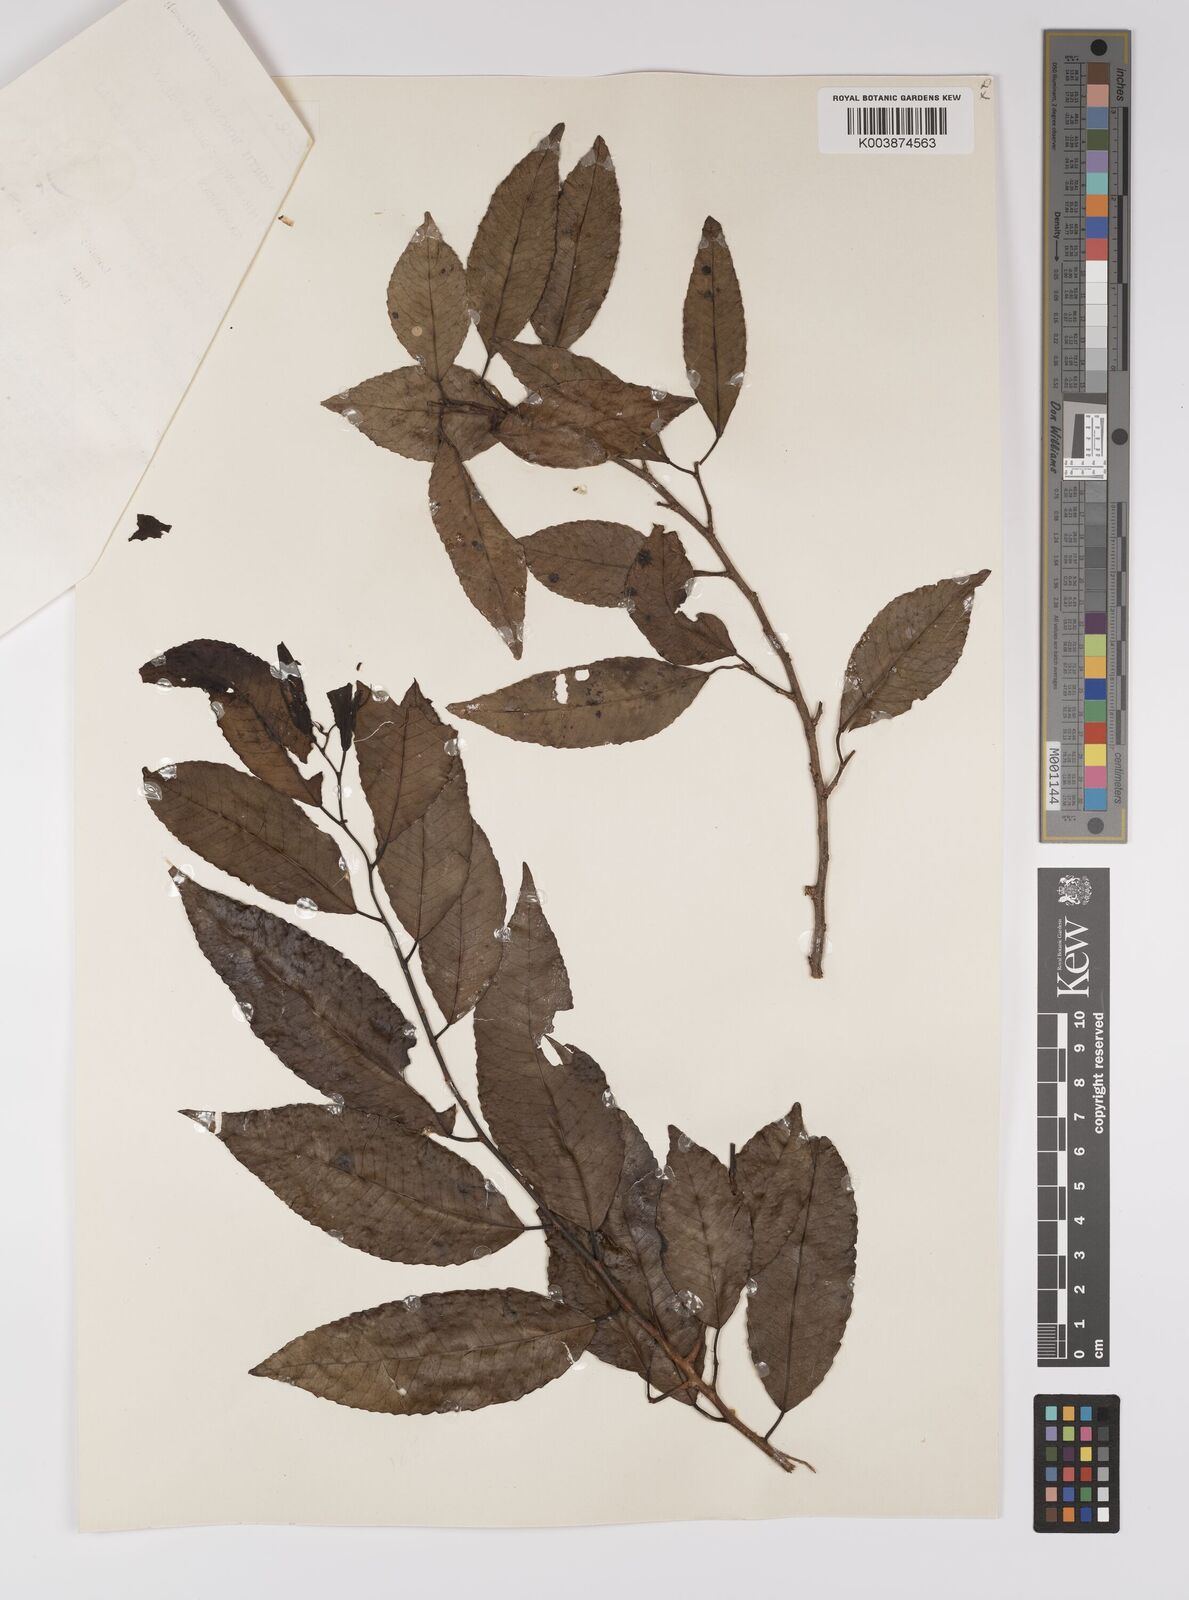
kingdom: Plantae
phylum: Tracheophyta
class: Magnoliopsida
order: Malpighiales
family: Euphorbiaceae
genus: Shirakiopsis
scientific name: Shirakiopsis indica
